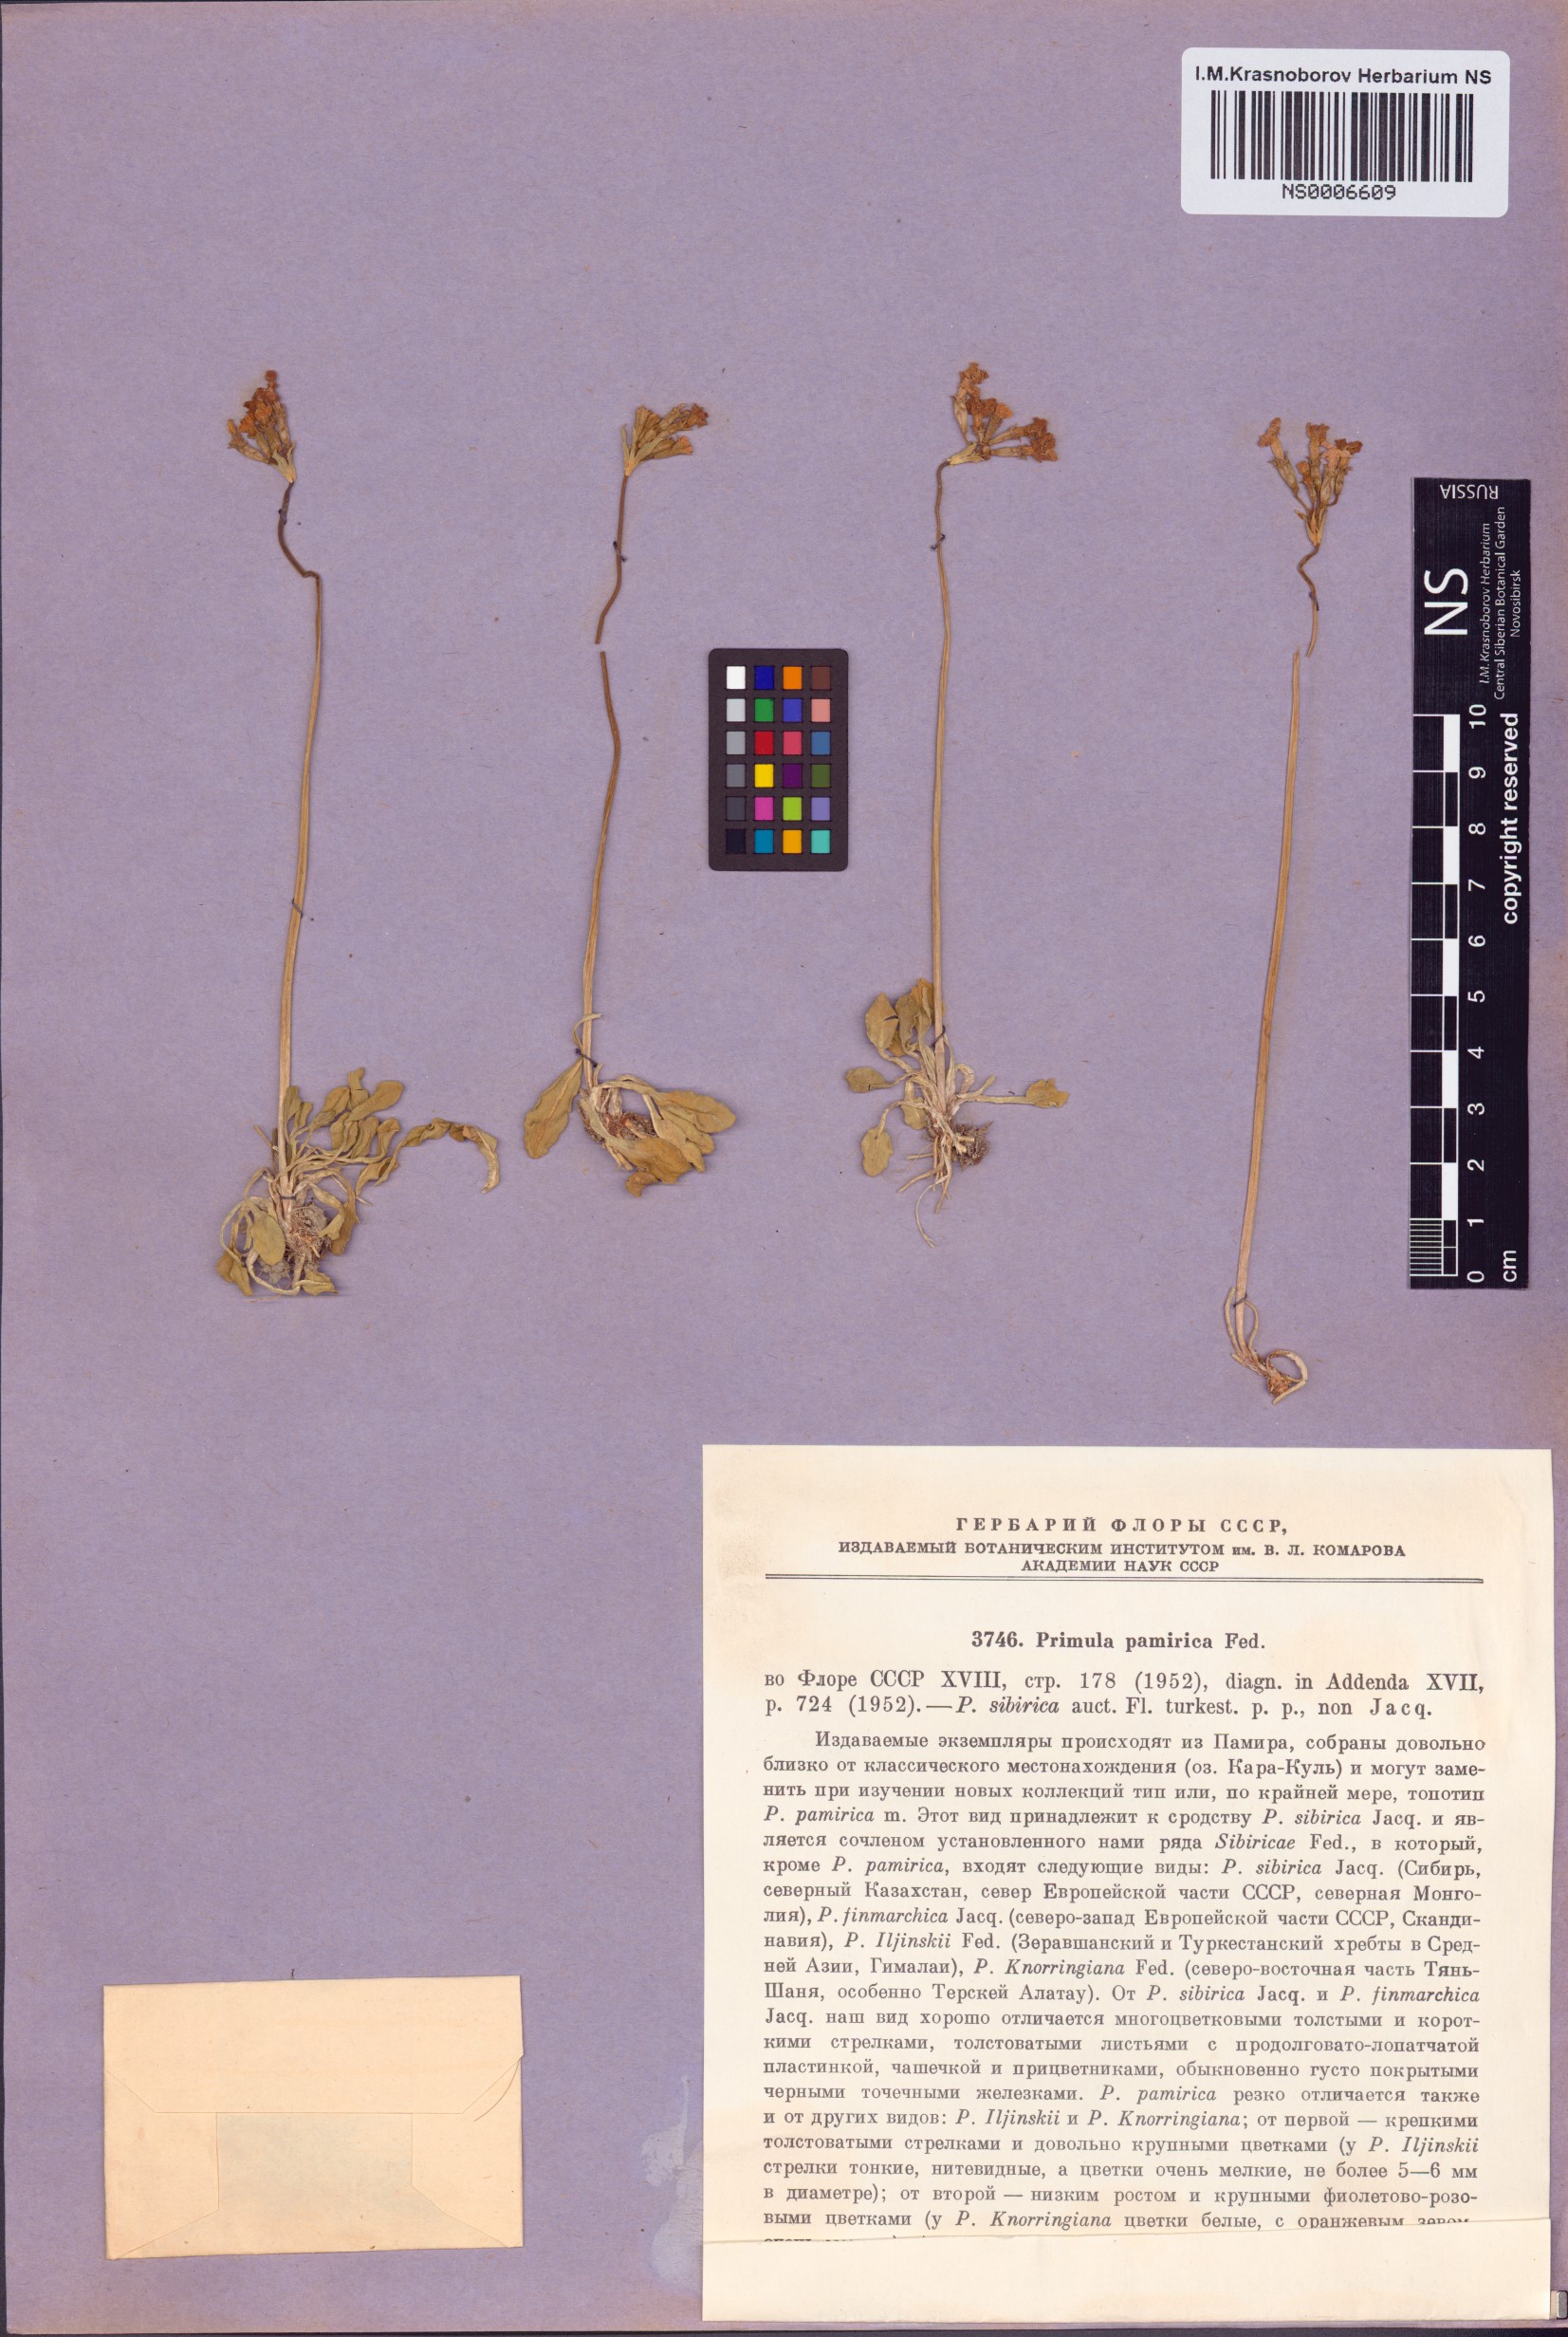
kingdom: Plantae
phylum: Tracheophyta
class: Magnoliopsida
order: Ericales
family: Primulaceae
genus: Primula
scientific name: Primula pamirica
